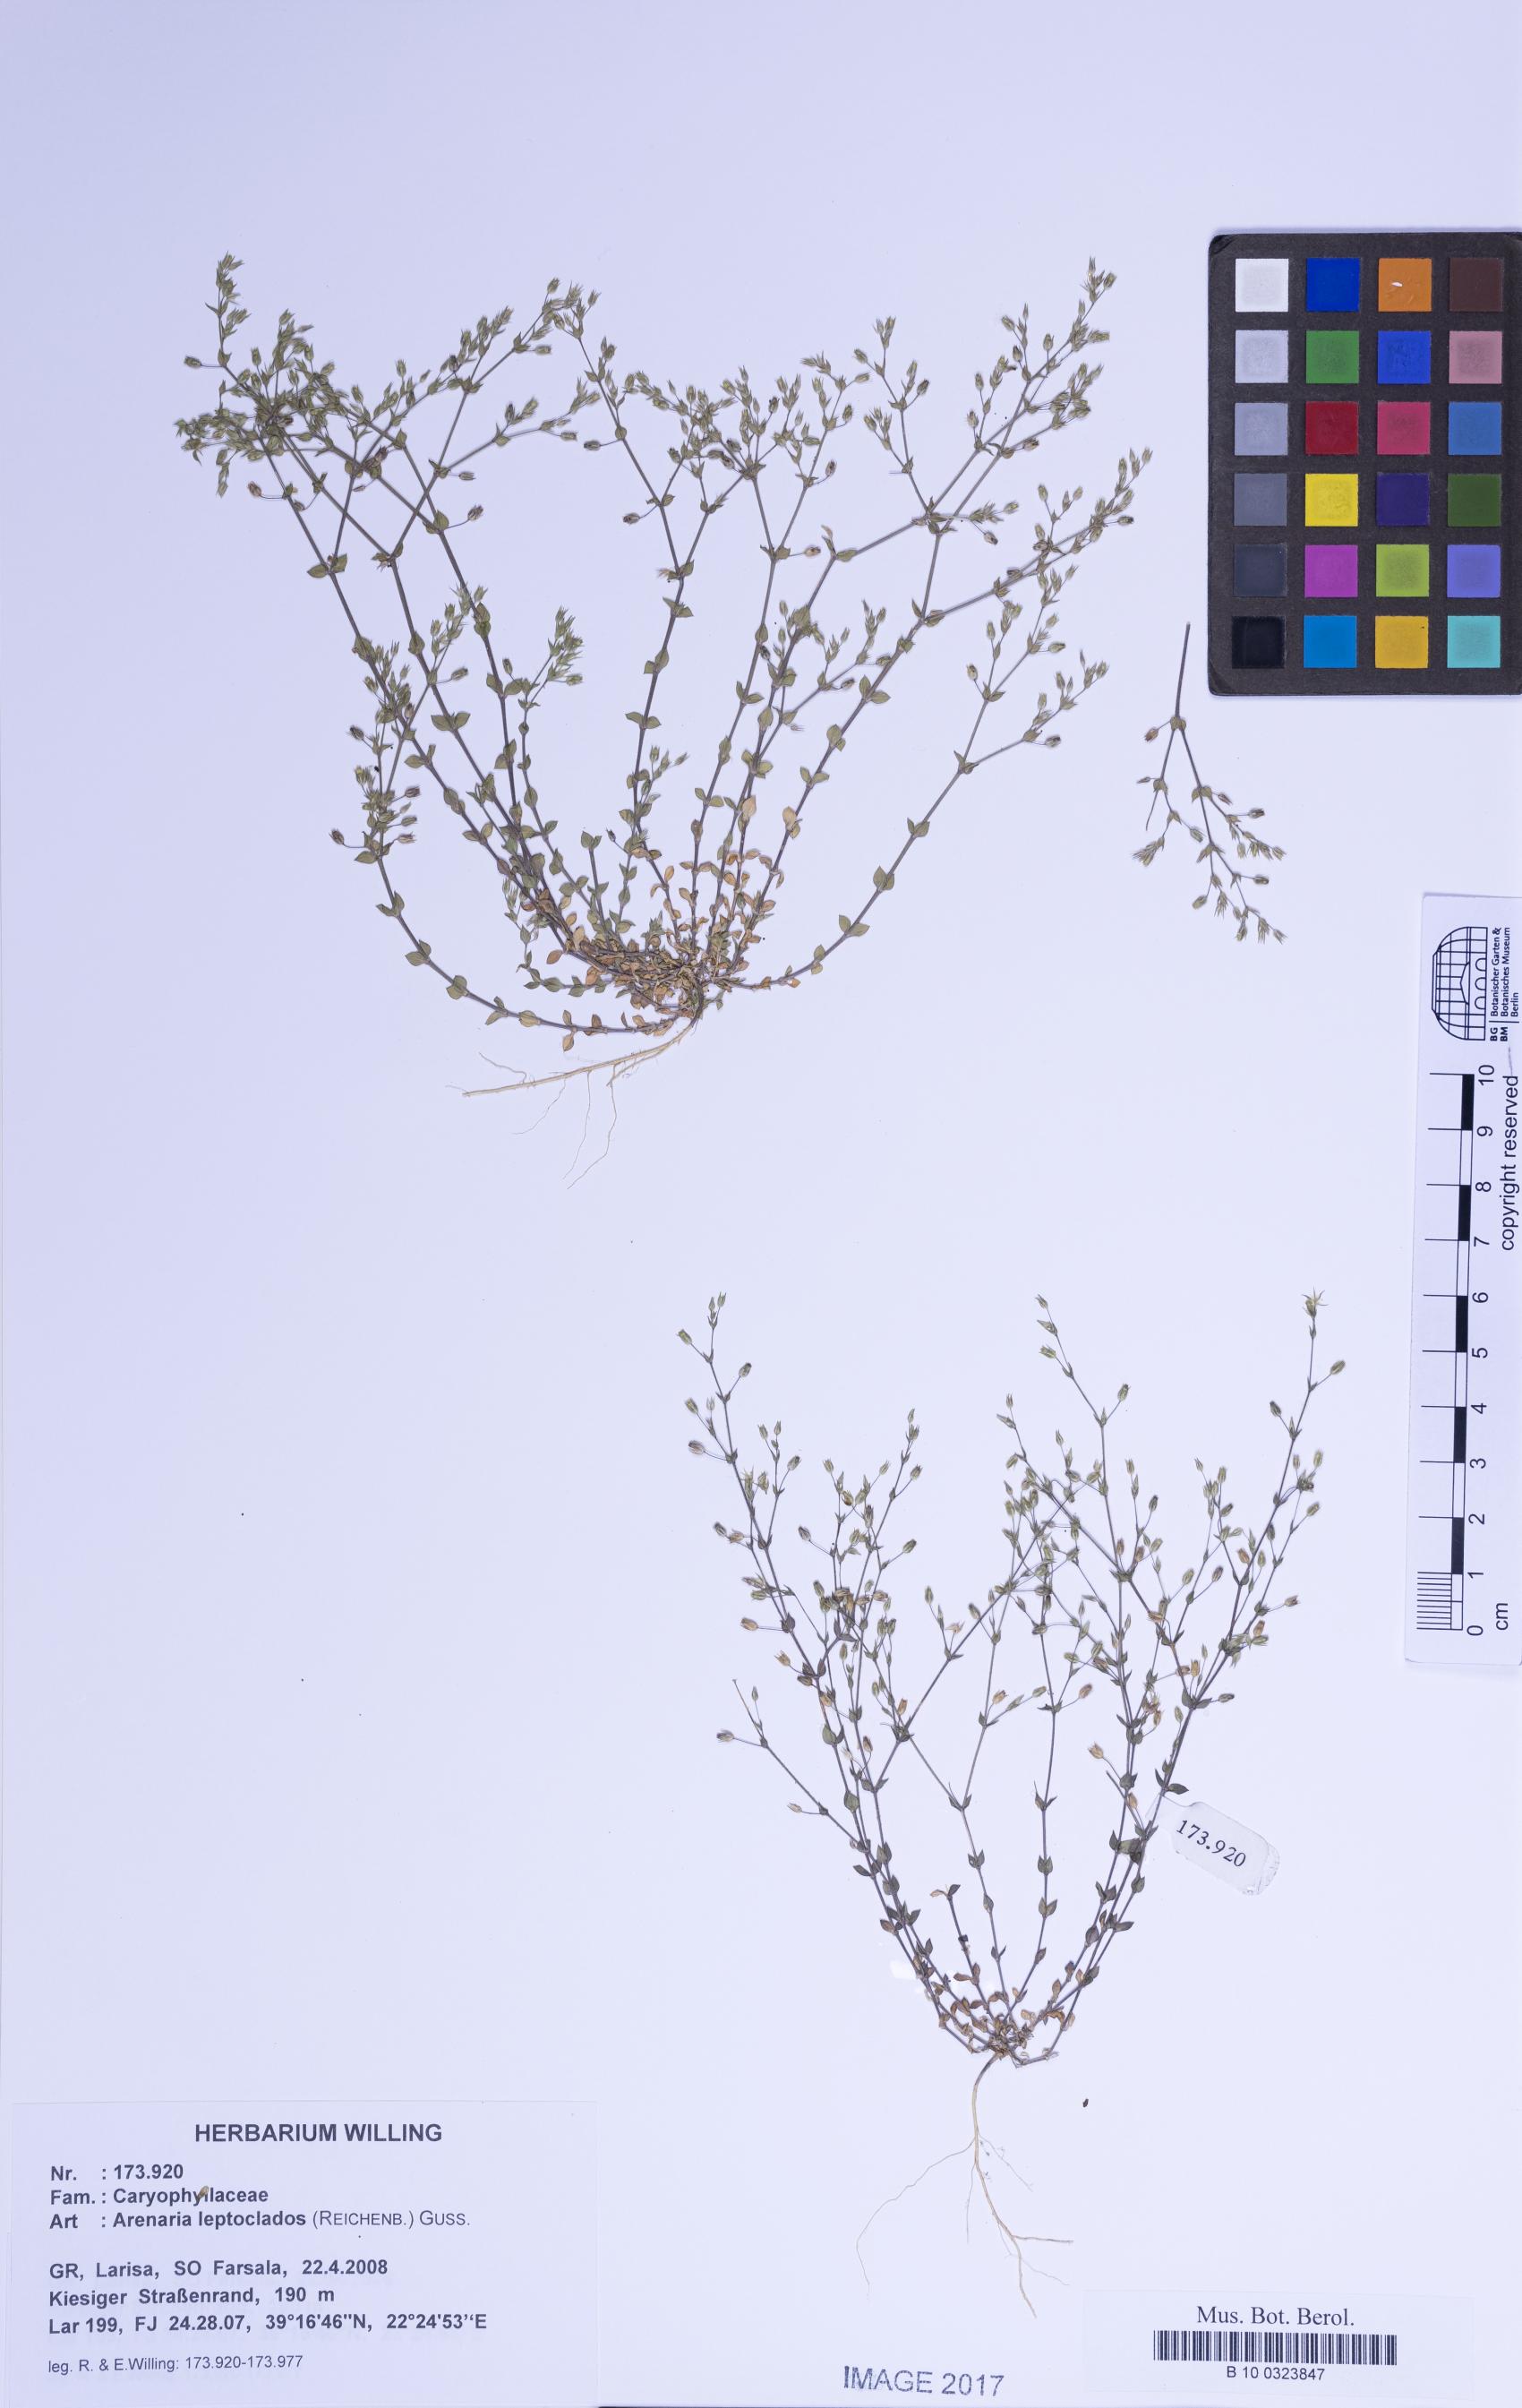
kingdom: Plantae
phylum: Tracheophyta
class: Magnoliopsida
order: Caryophyllales
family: Caryophyllaceae
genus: Arenaria
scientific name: Arenaria leptoclados
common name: Thyme-leaved sandwort
